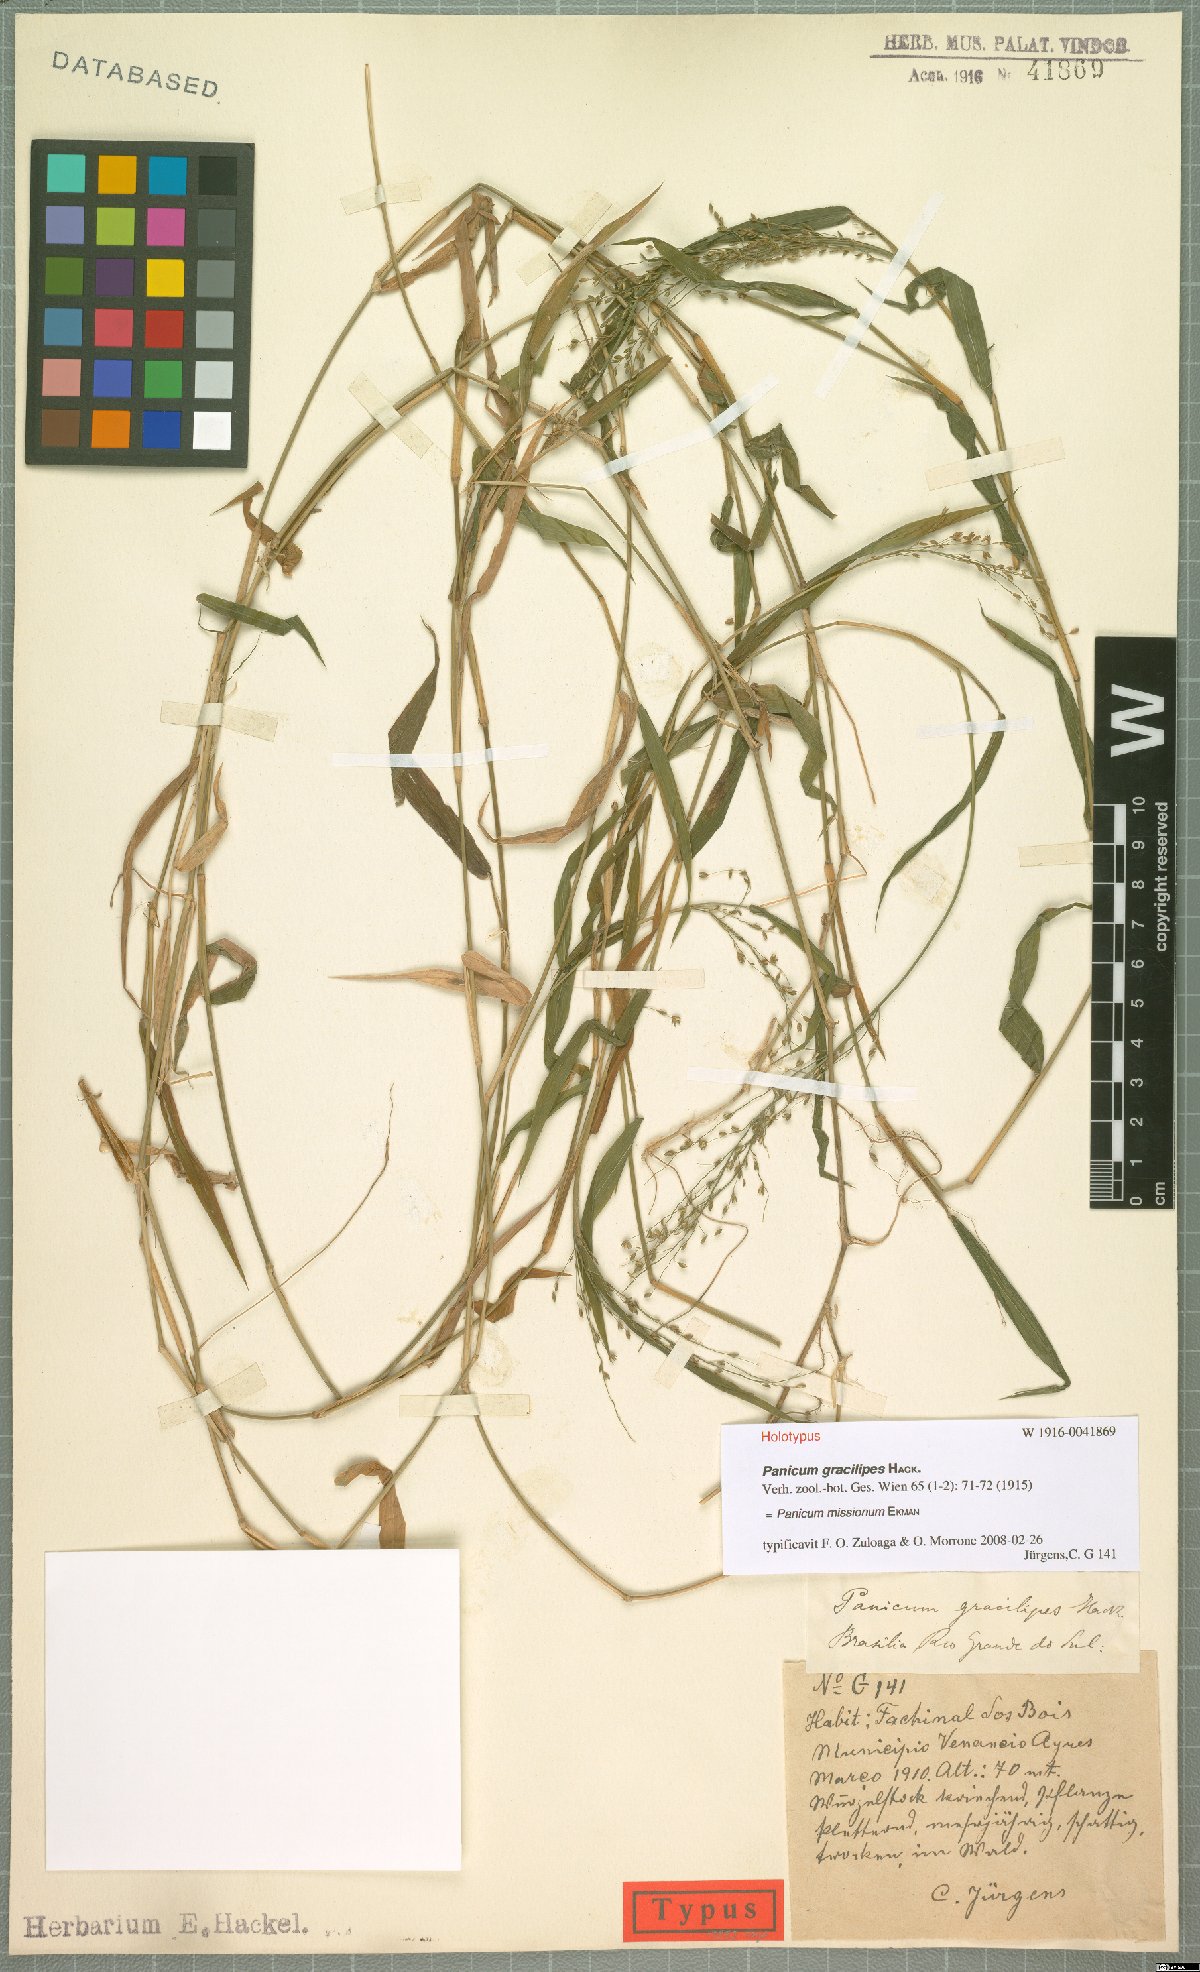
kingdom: Plantae
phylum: Tracheophyta
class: Liliopsida
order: Poales
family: Poaceae
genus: Parodiophyllochloa
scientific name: Parodiophyllochloa missiona
